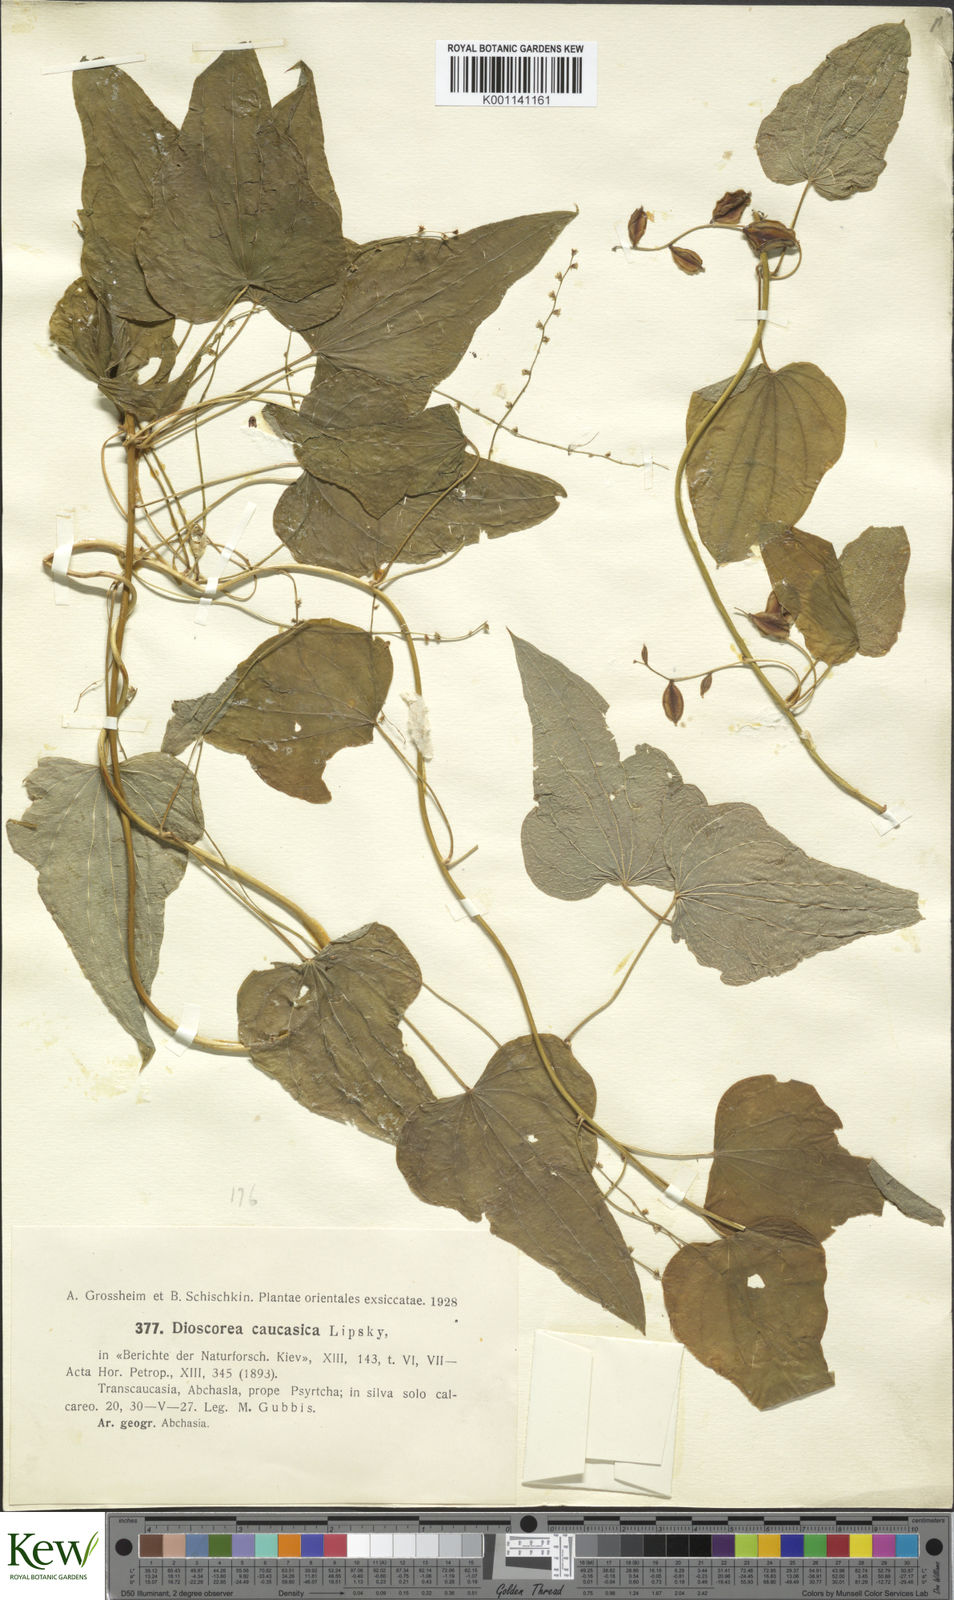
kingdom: Plantae
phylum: Tracheophyta
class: Liliopsida
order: Dioscoreales
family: Dioscoreaceae
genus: Dioscorea
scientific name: Dioscorea caucasica
